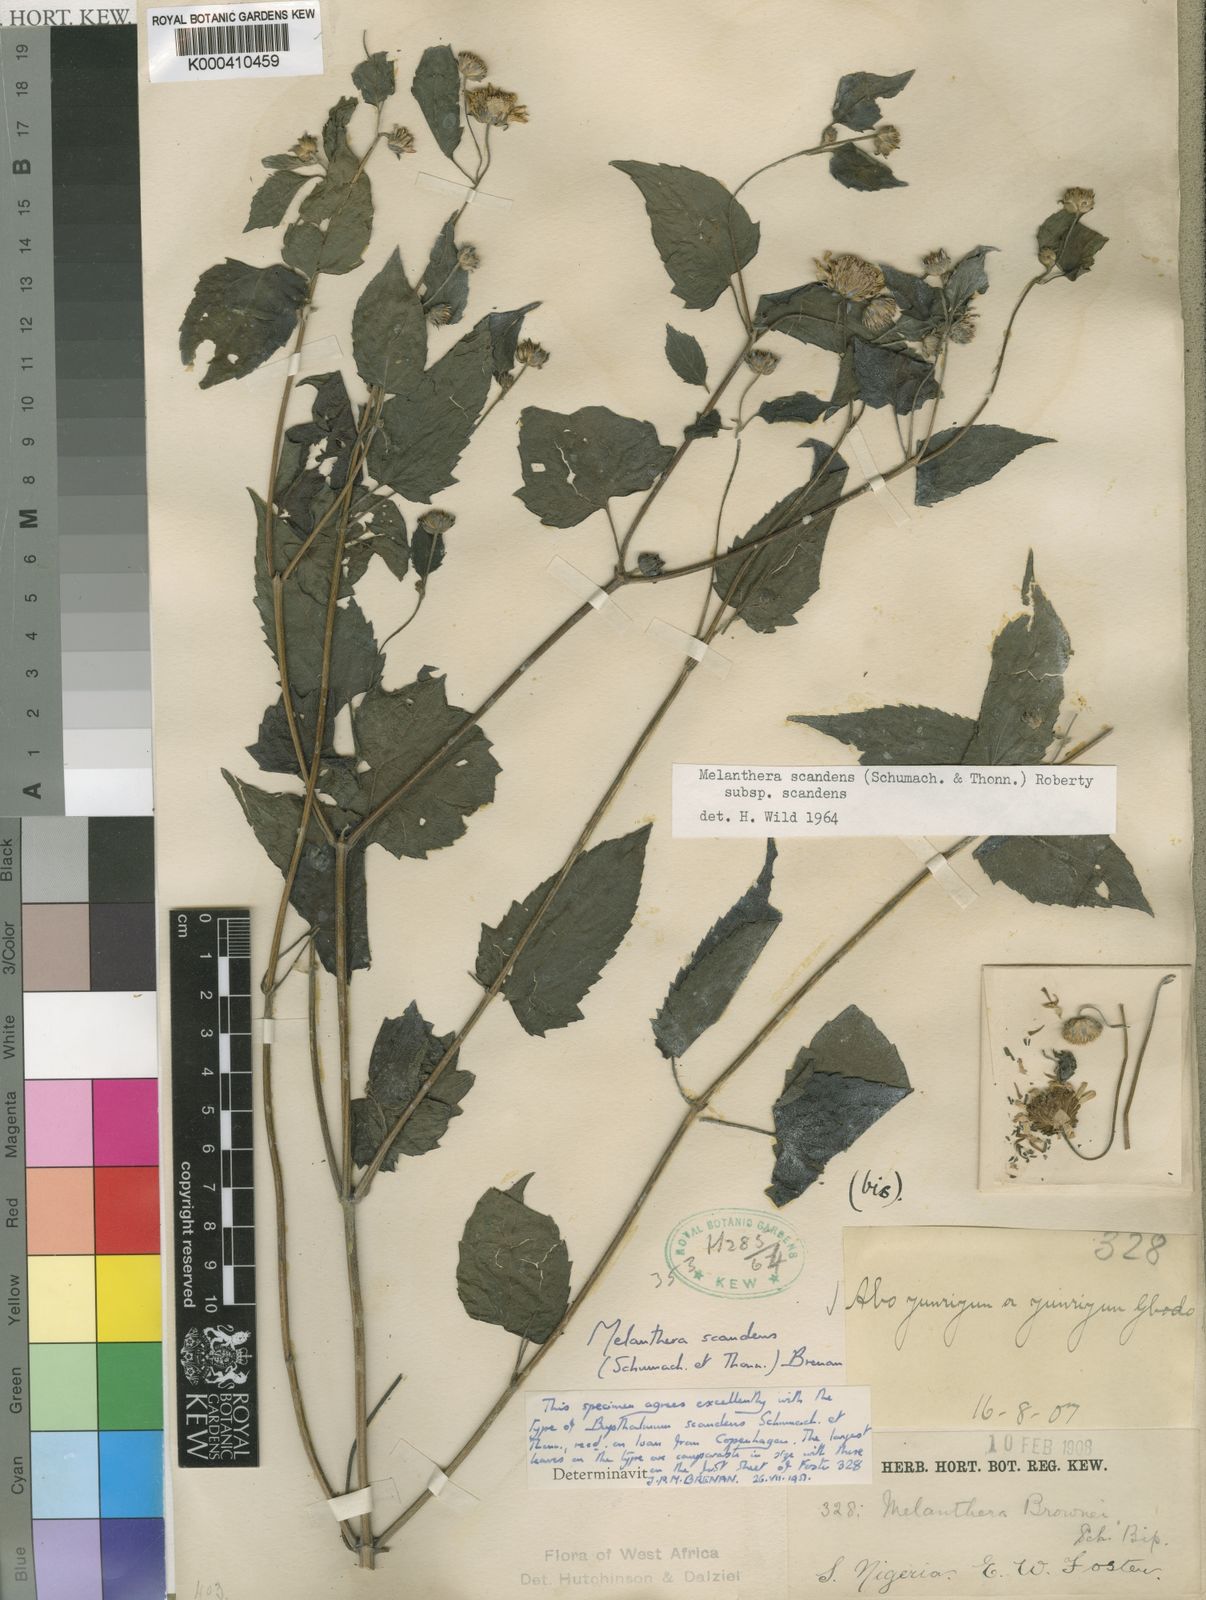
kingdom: Plantae
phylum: Tracheophyta
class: Magnoliopsida
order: Asterales
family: Asteraceae
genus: Melanthera
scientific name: Melanthera
